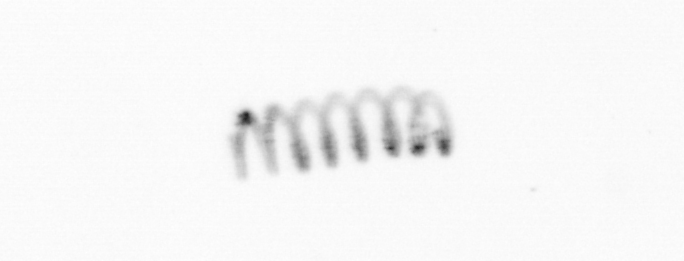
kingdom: Chromista
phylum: Ochrophyta
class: Bacillariophyceae
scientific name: Bacillariophyceae
